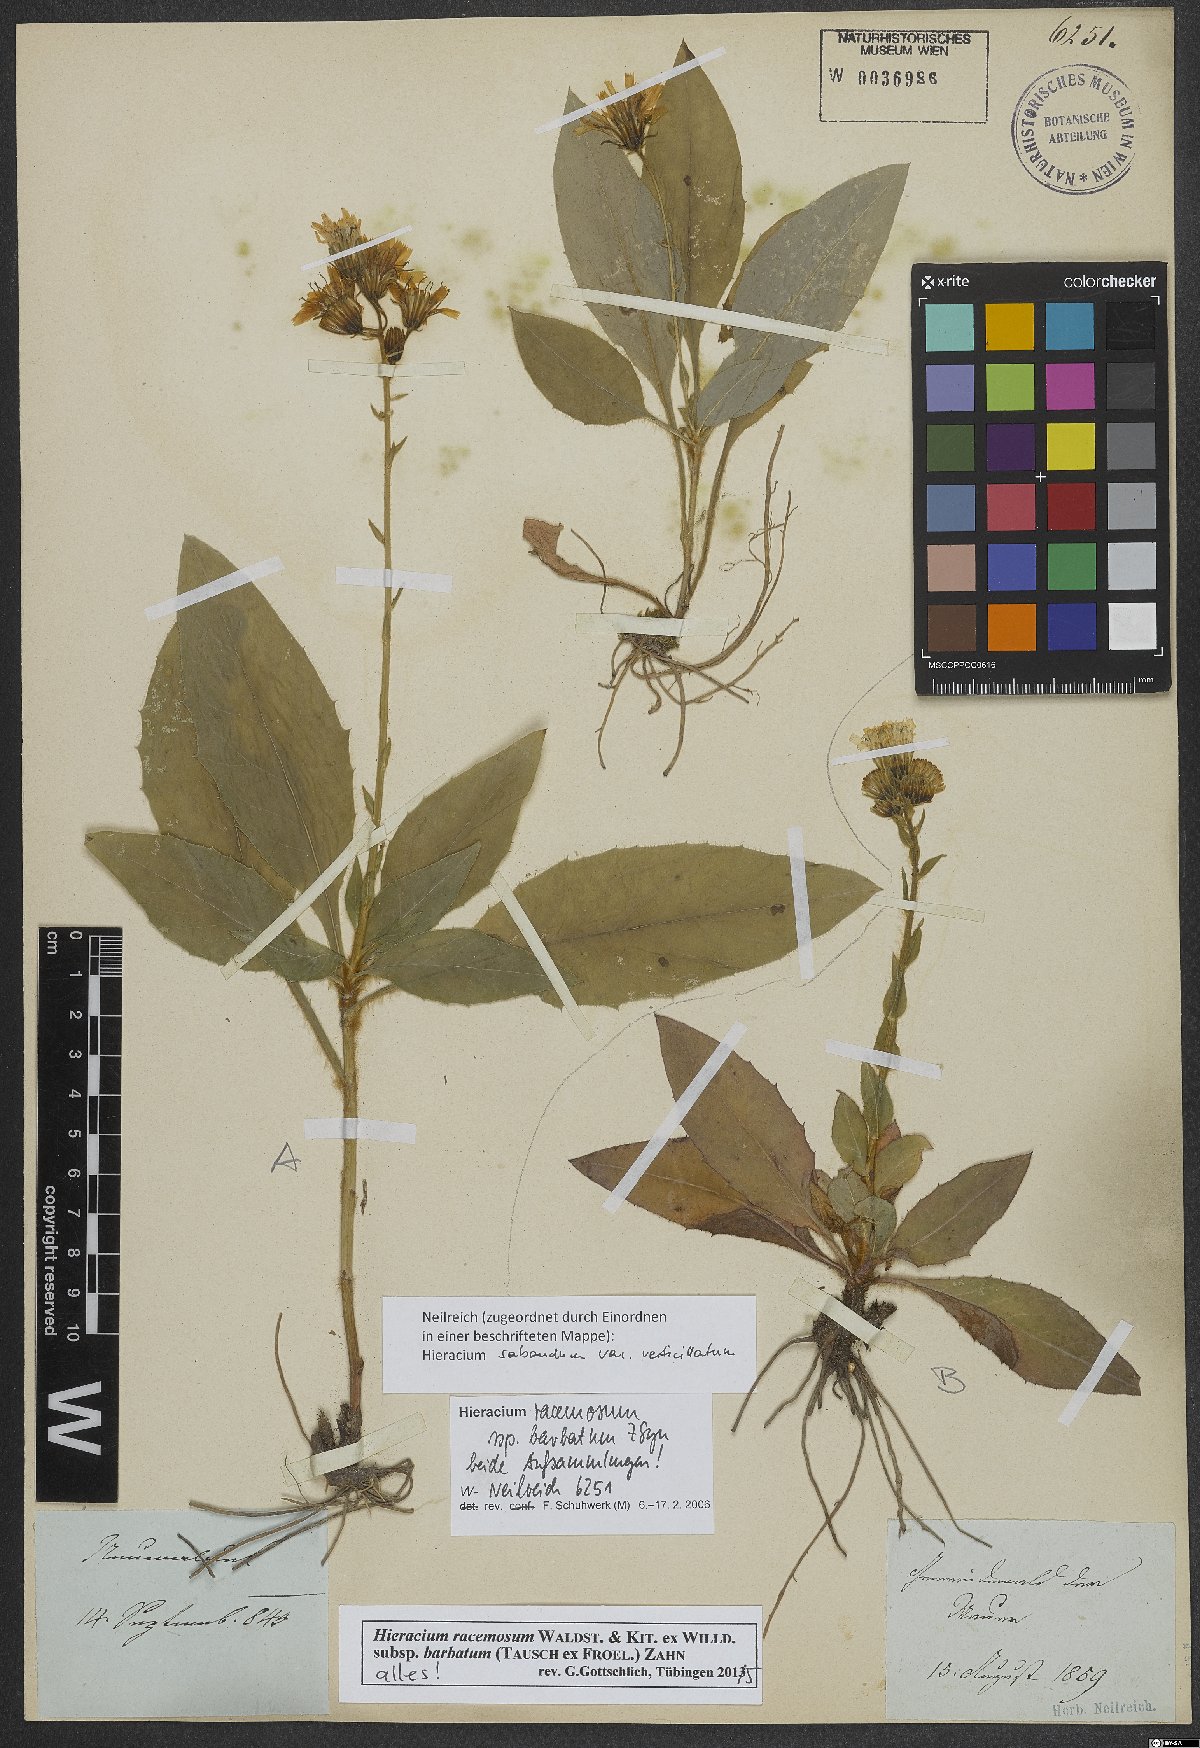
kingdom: Plantae
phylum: Tracheophyta
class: Magnoliopsida
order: Asterales
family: Asteraceae
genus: Hieracium
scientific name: Hieracium racemosum
